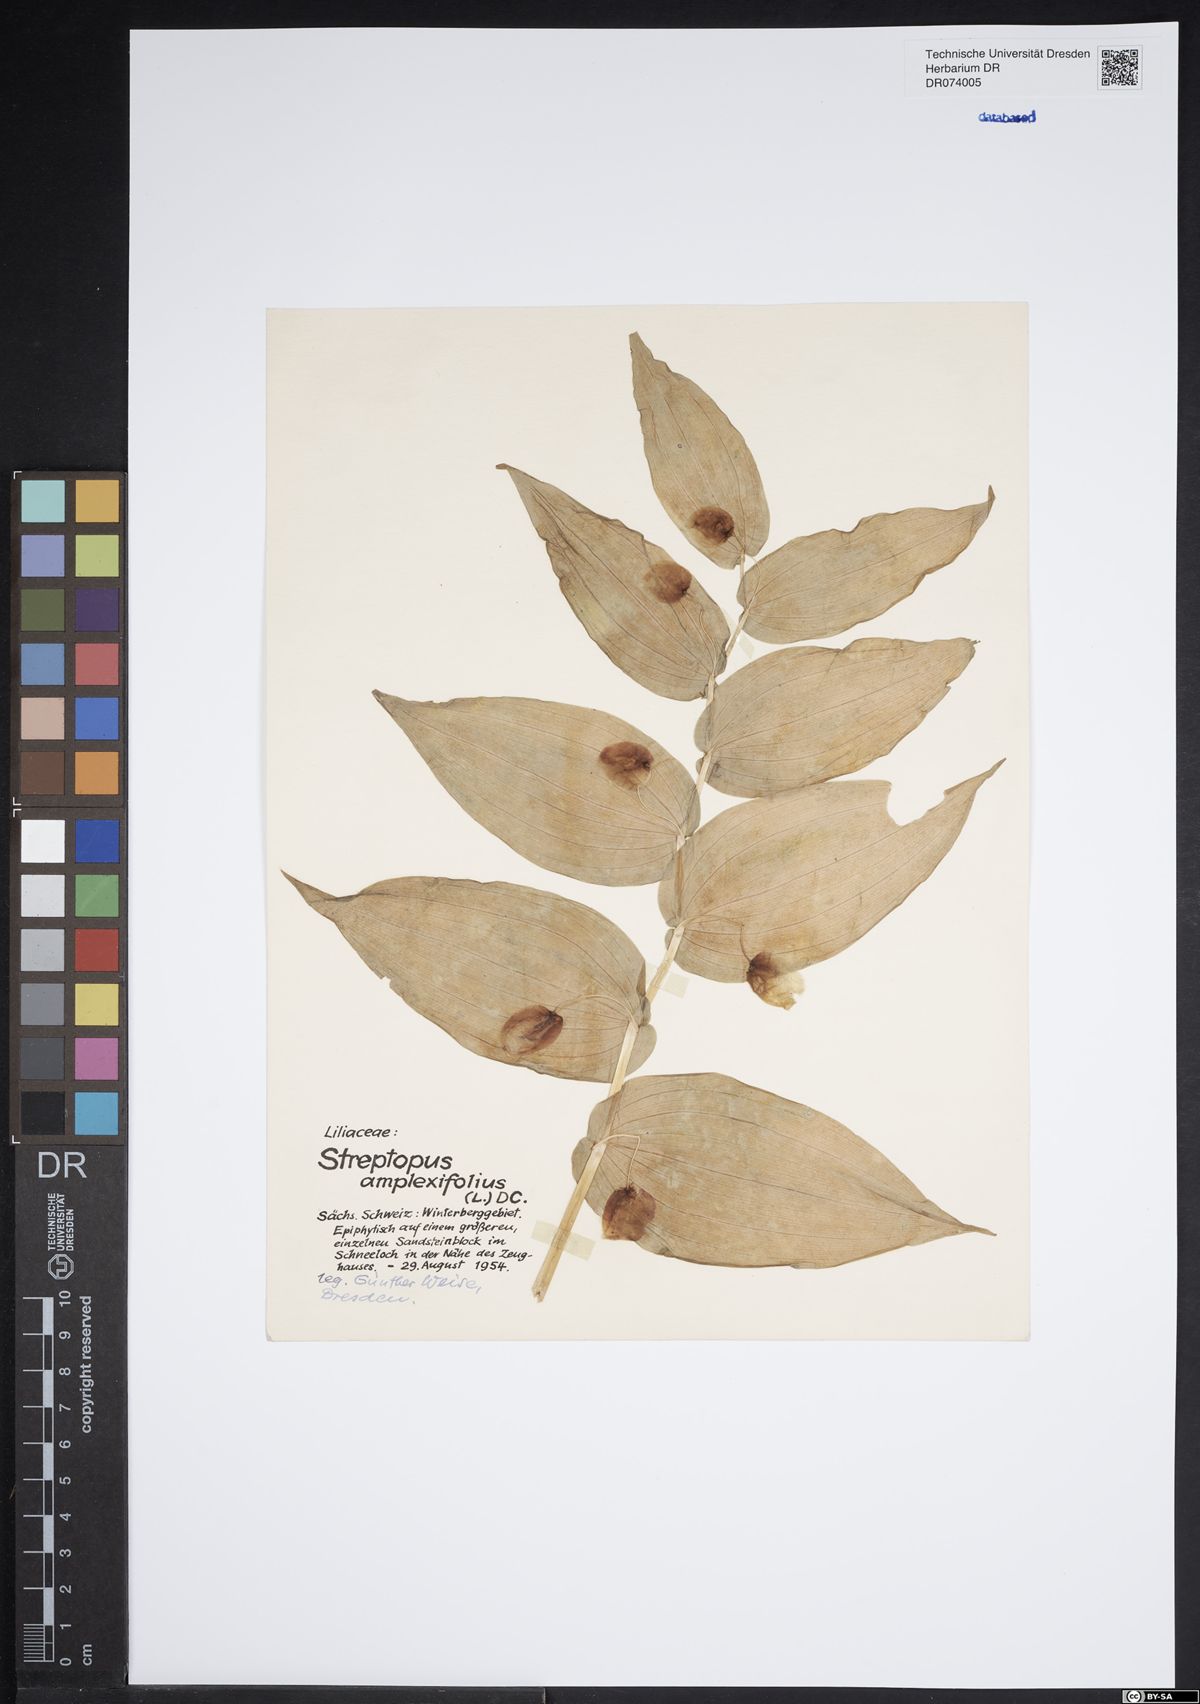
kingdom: Plantae
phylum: Tracheophyta
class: Liliopsida
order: Liliales
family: Liliaceae
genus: Streptopus
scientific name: Streptopus amplexifolius
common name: Clasp twisted stalk
